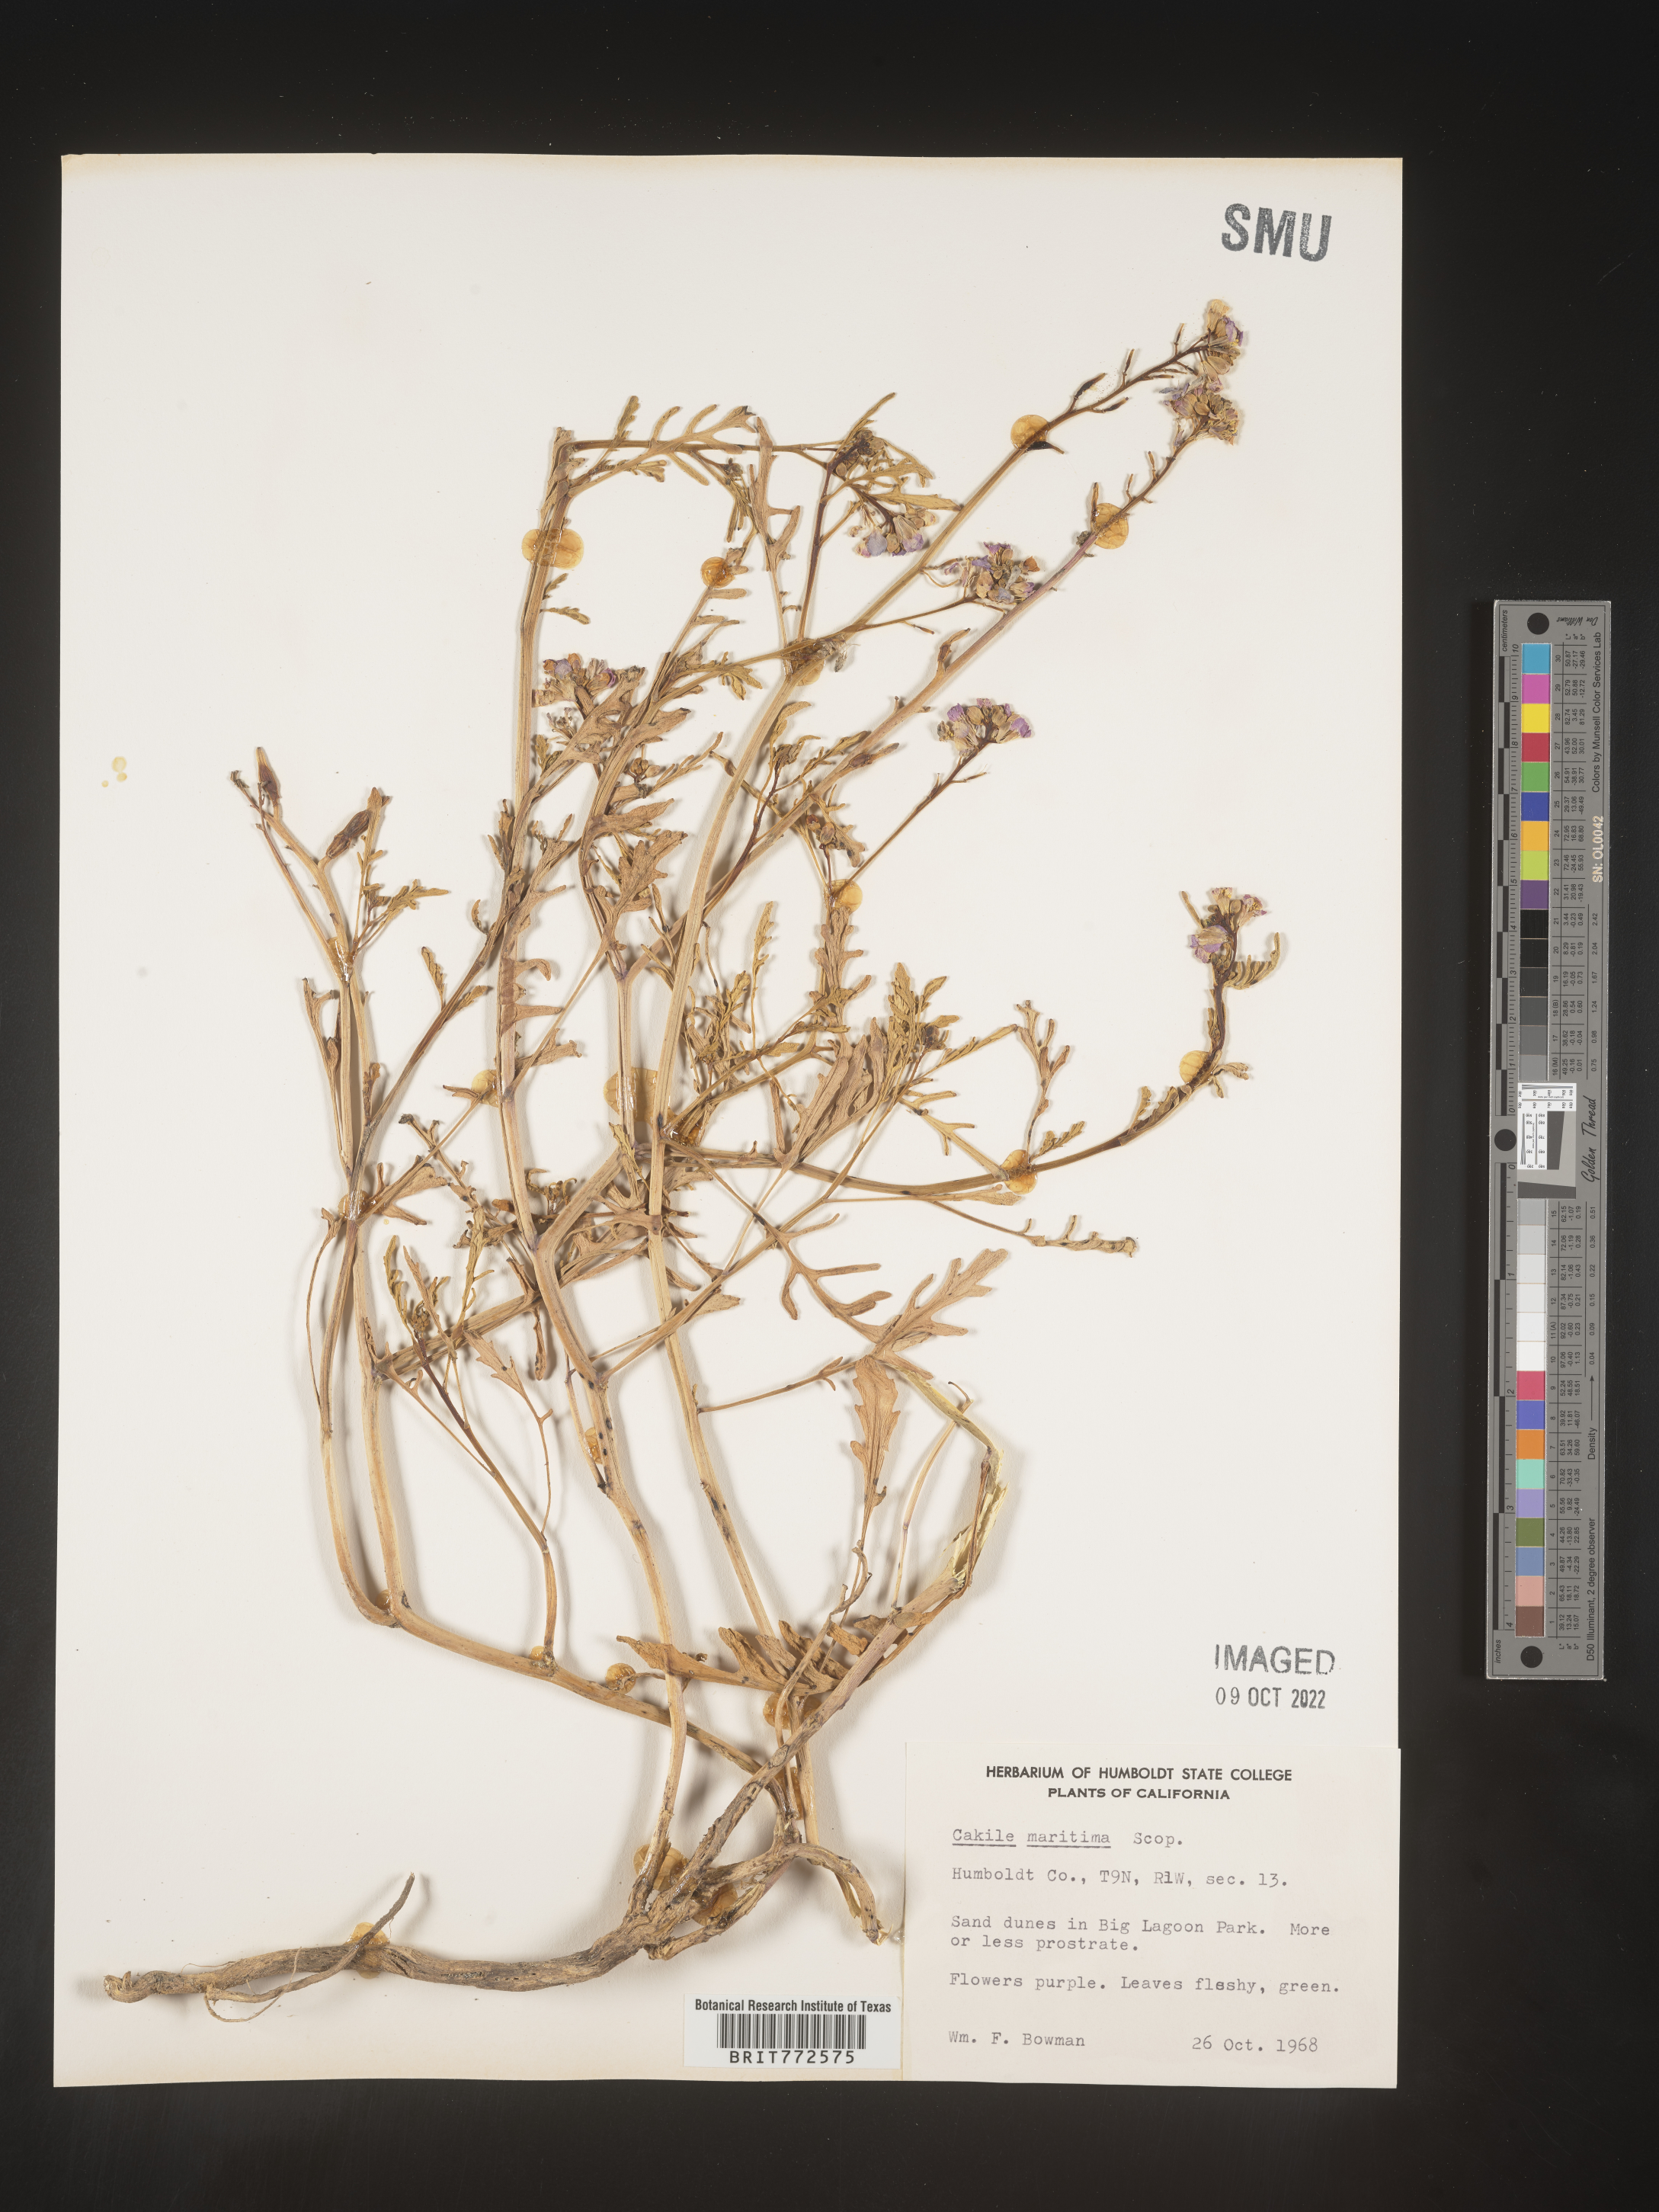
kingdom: Plantae
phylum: Tracheophyta
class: Magnoliopsida
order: Brassicales
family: Brassicaceae
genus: Cakile
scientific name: Cakile maritima
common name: Sea rocket
